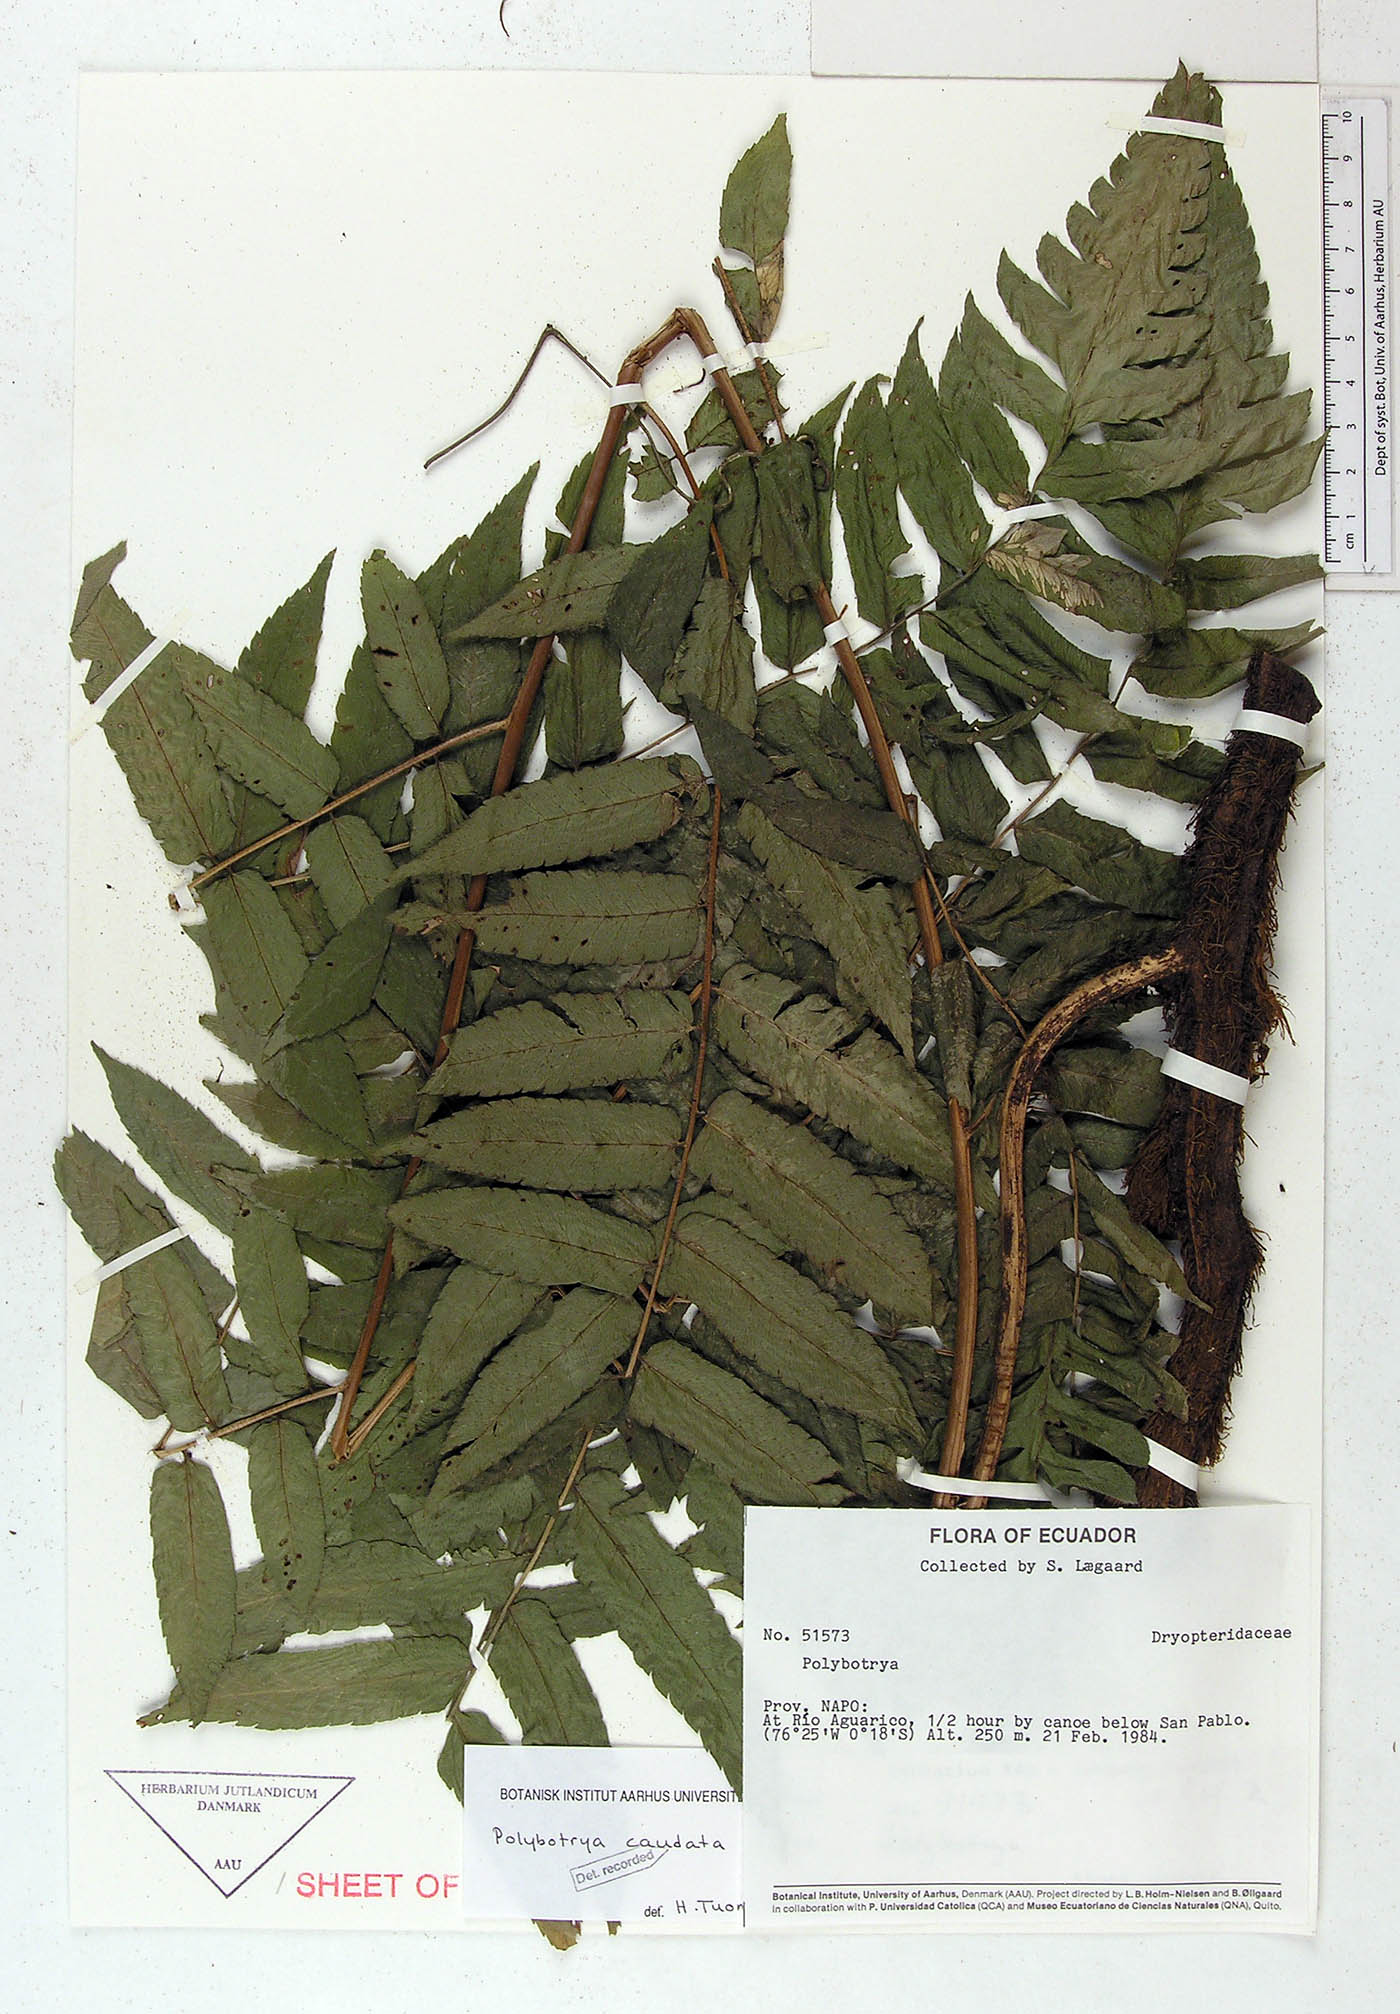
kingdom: Plantae
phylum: Tracheophyta
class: Polypodiopsida
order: Polypodiales
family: Dryopteridaceae
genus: Polybotrya
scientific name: Polybotrya caudata
